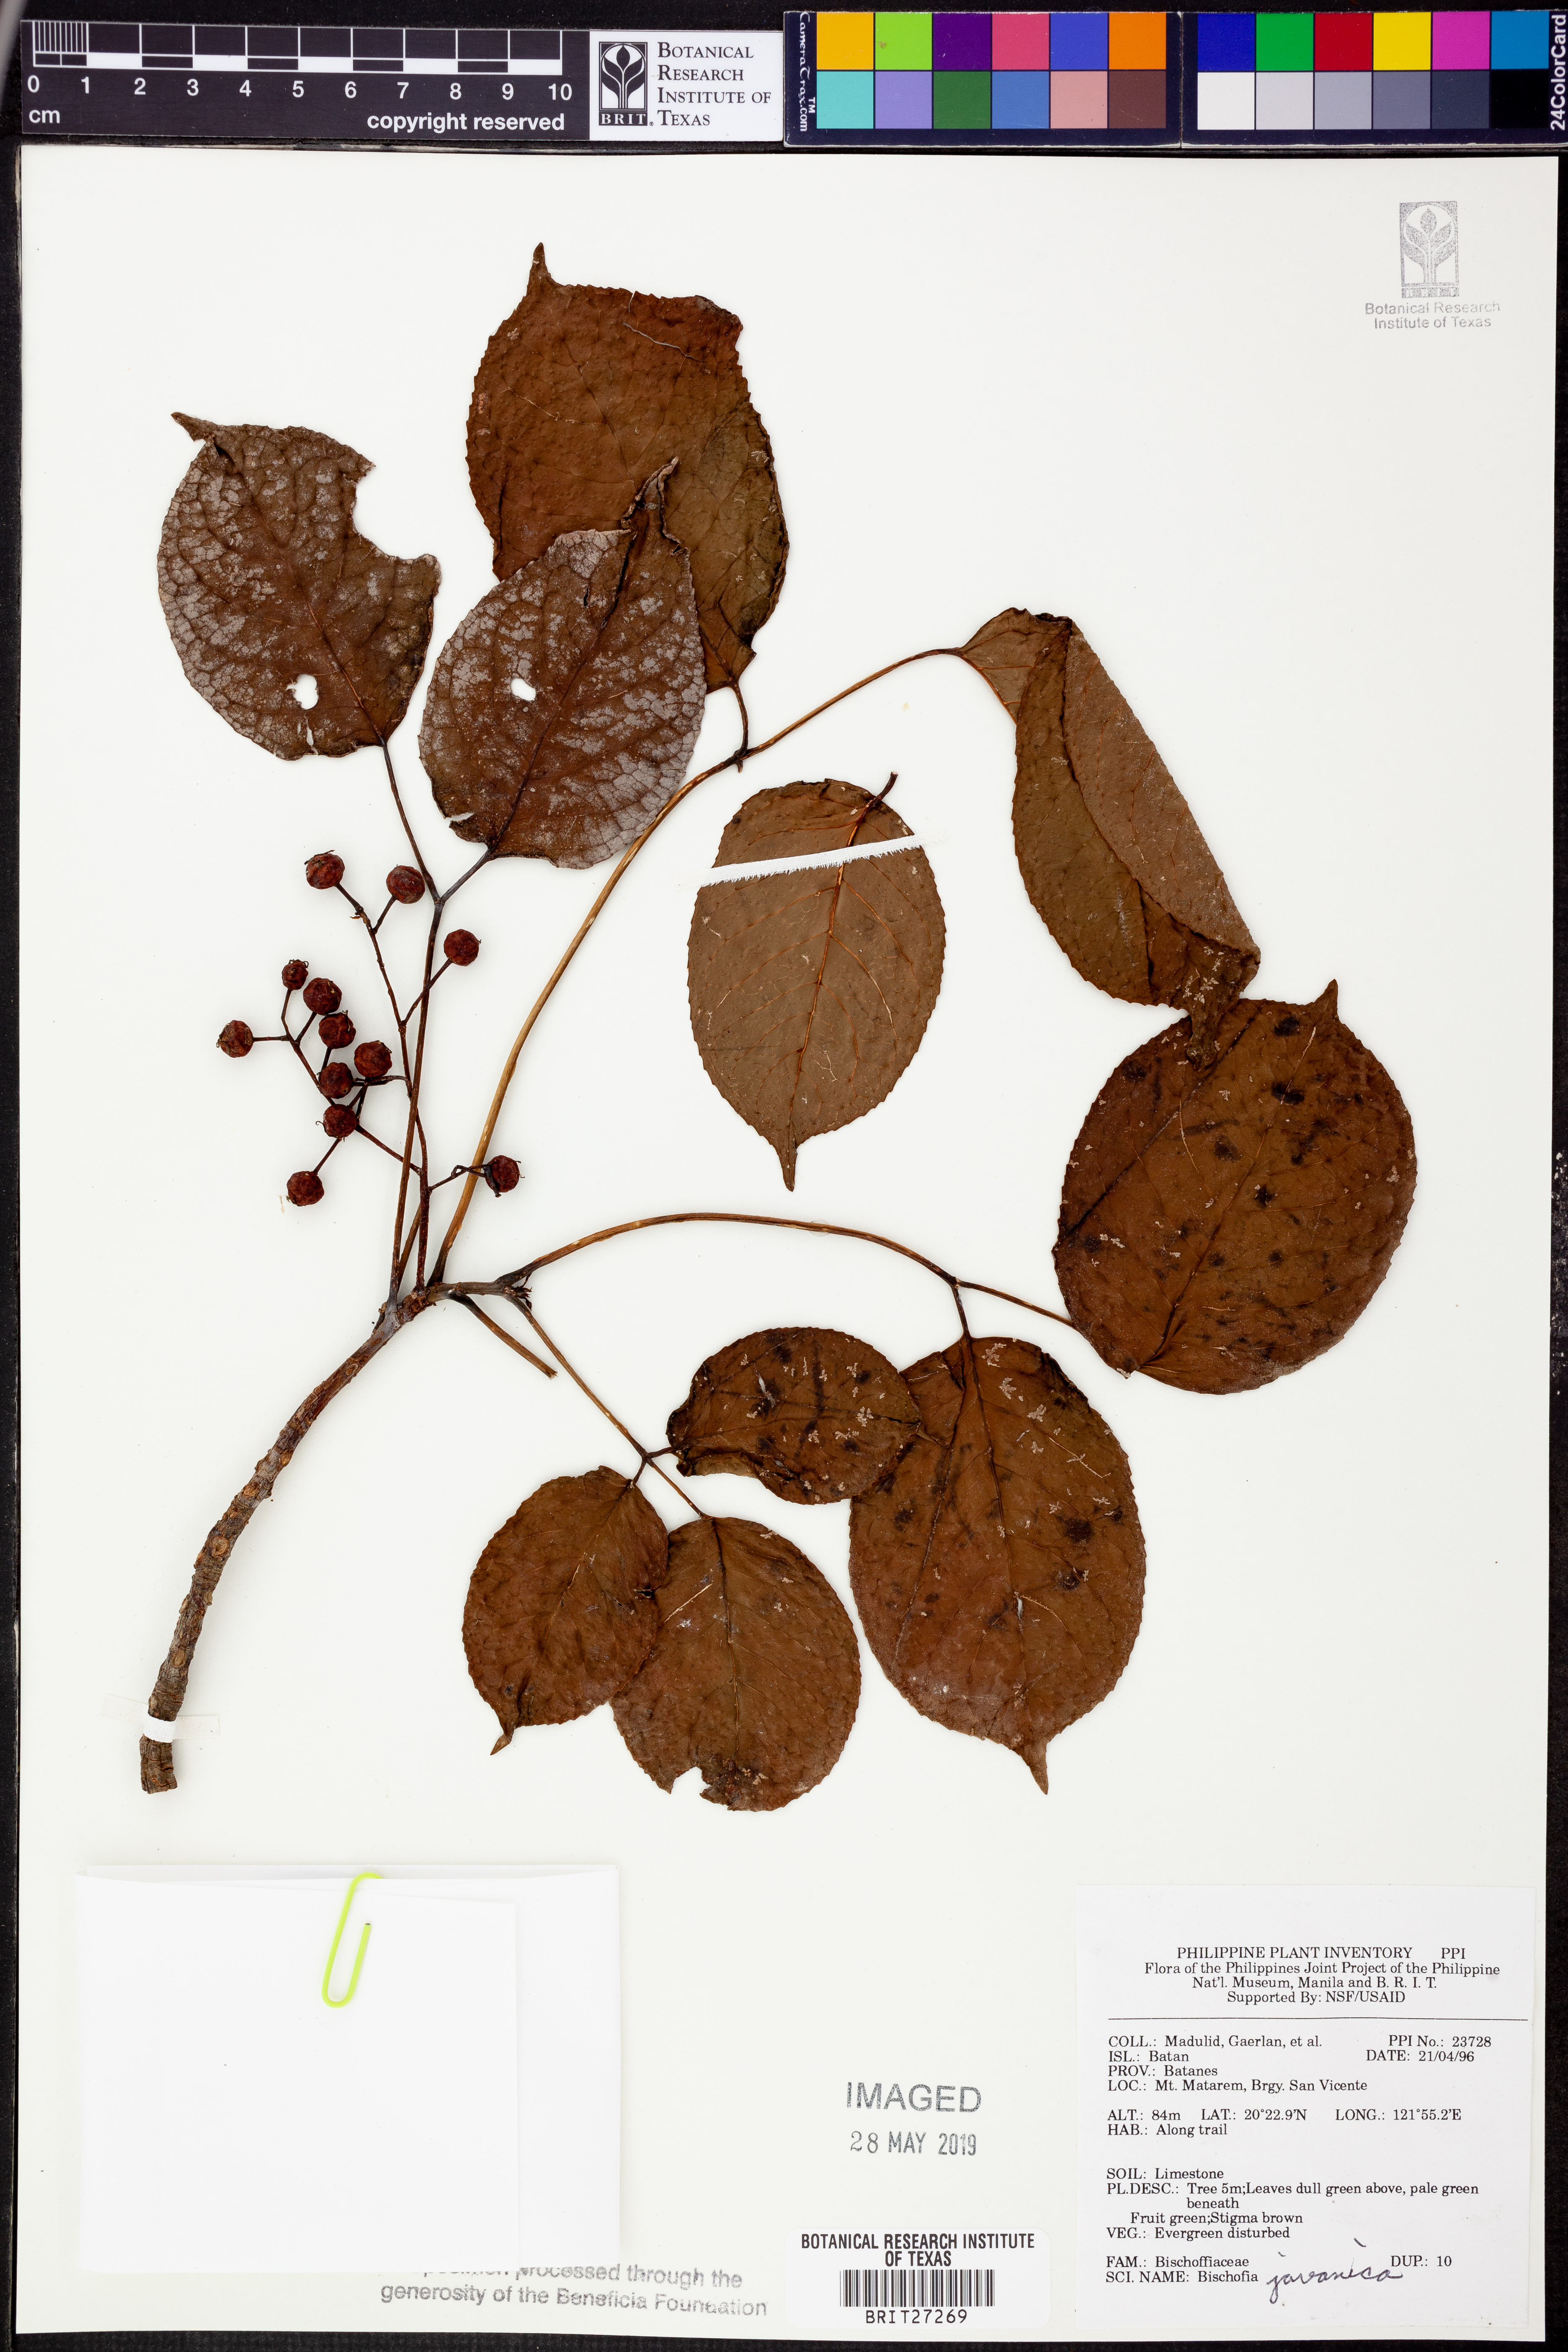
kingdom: Plantae
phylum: Tracheophyta
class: Magnoliopsida
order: Malpighiales
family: Phyllanthaceae
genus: Bischofia
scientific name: Bischofia javanica
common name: Javanese bishopwood
